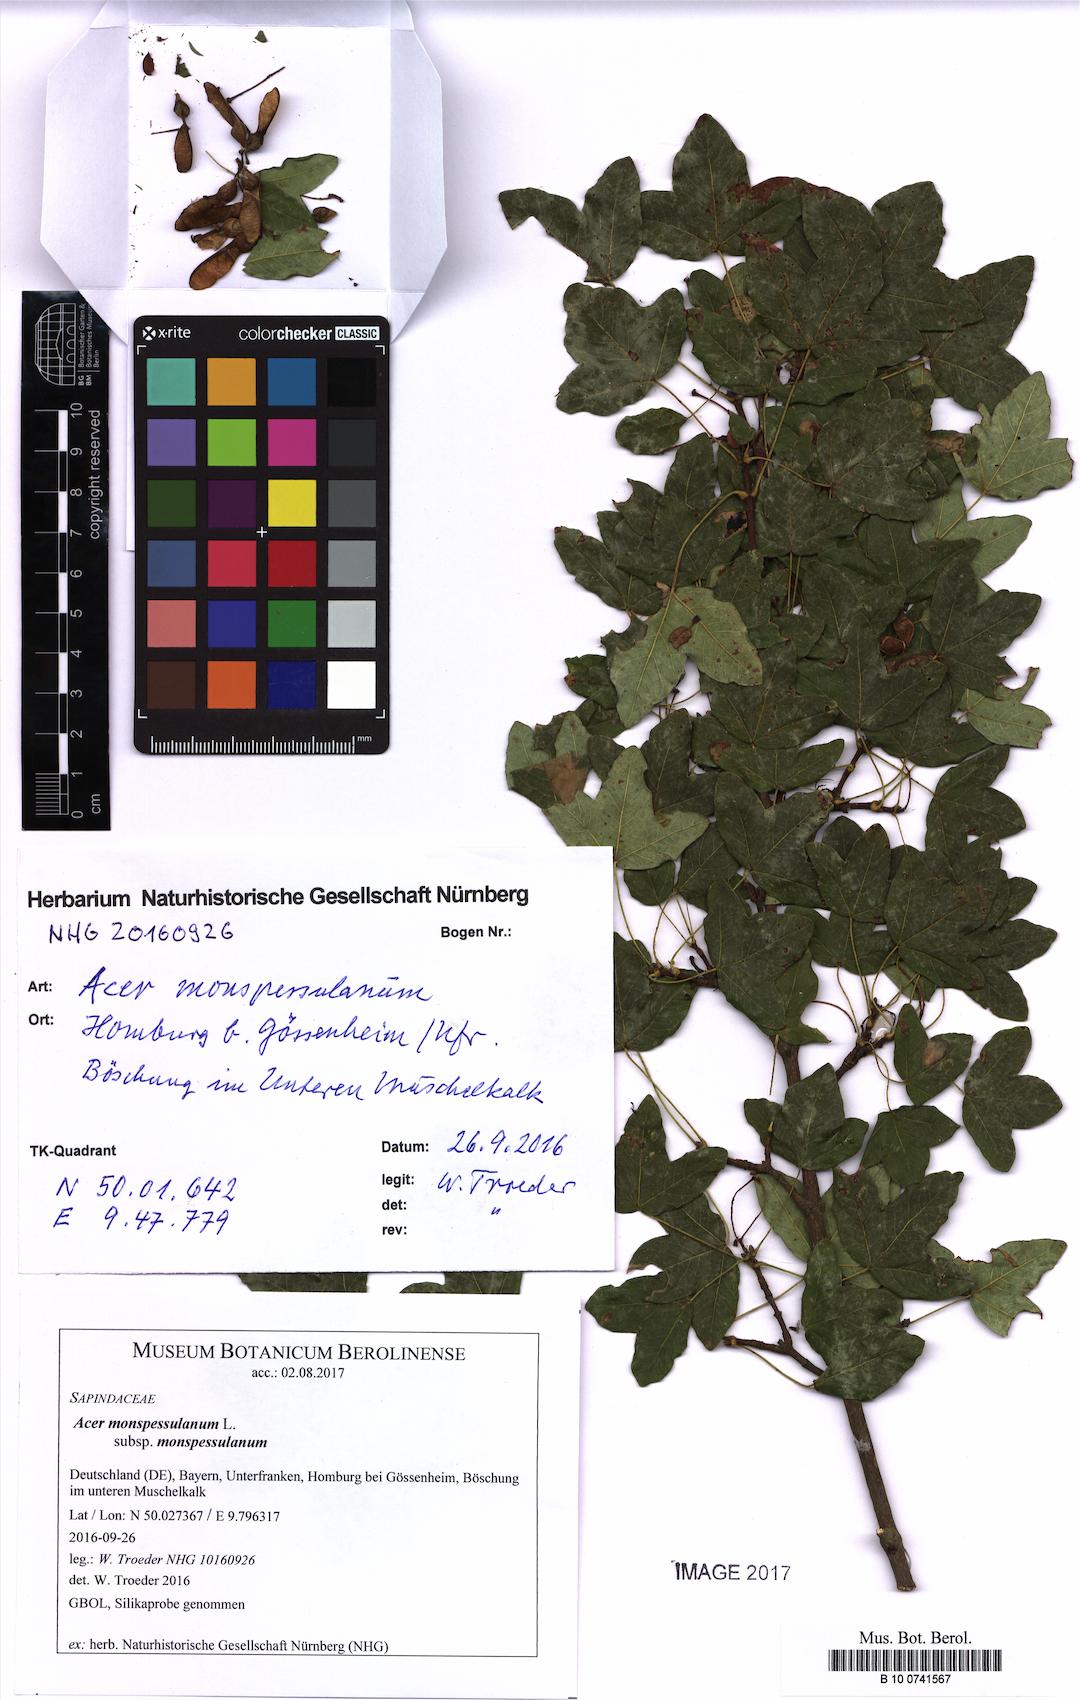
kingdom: Plantae
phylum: Tracheophyta
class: Magnoliopsida
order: Sapindales
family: Sapindaceae
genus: Acer
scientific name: Acer monspessulanum
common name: Montpellier maple
